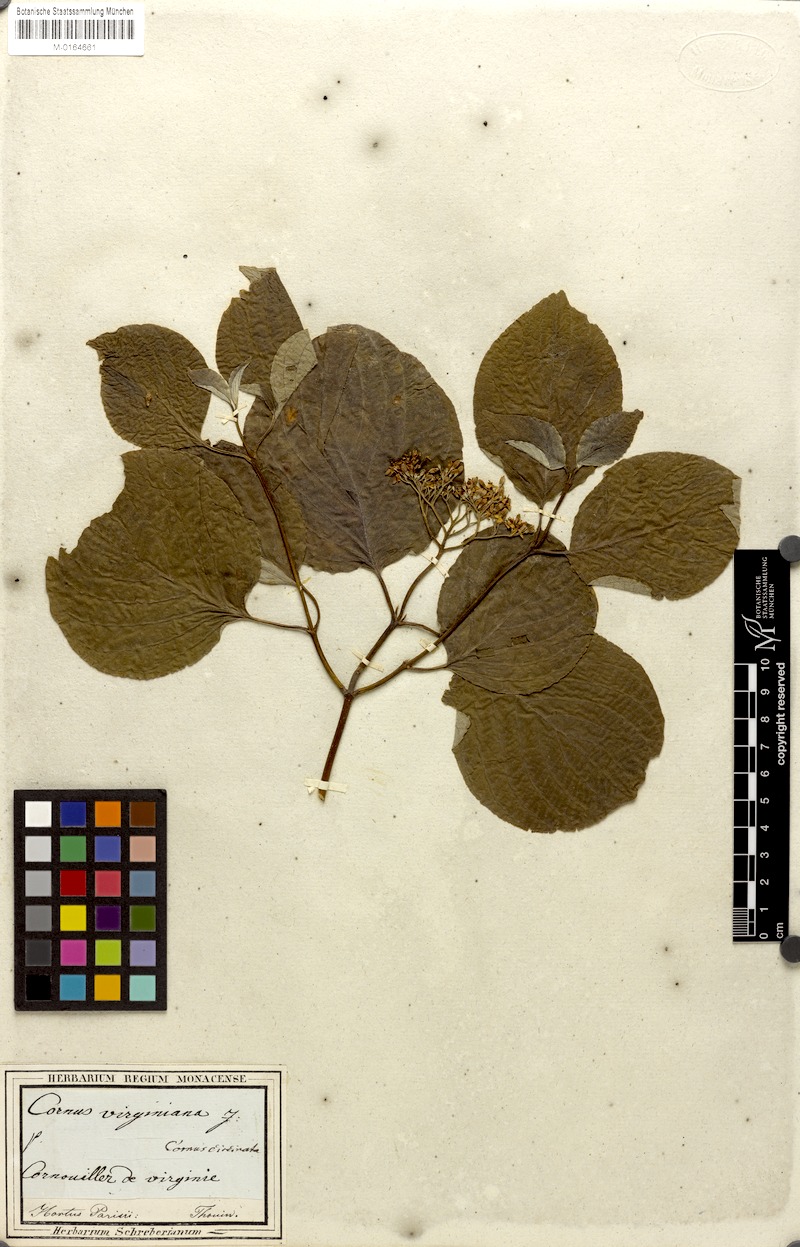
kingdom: Plantae
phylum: Tracheophyta
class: Magnoliopsida
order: Cornales
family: Cornaceae
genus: Cornus
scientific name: Cornus rugosa
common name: Round-leaf dogwood
